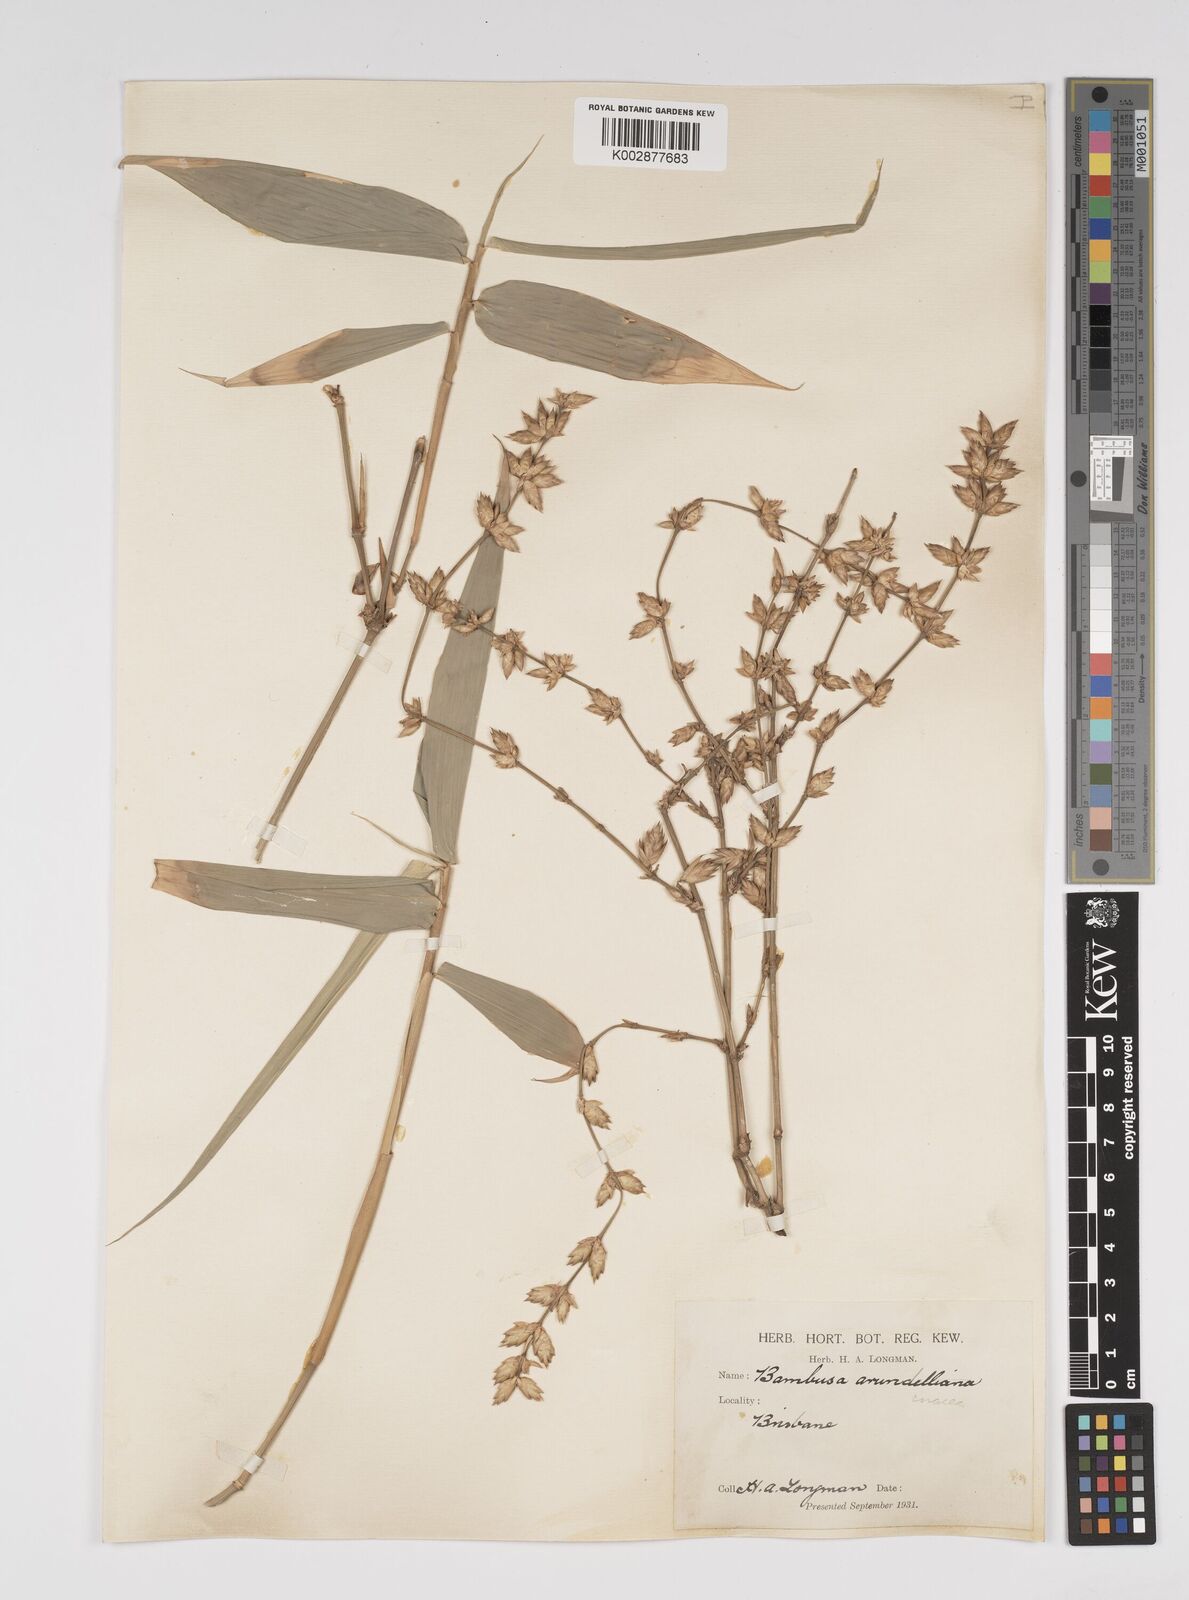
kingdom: Plantae
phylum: Tracheophyta
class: Liliopsida
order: Poales
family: Poaceae
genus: Bambusa
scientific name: Bambusa
